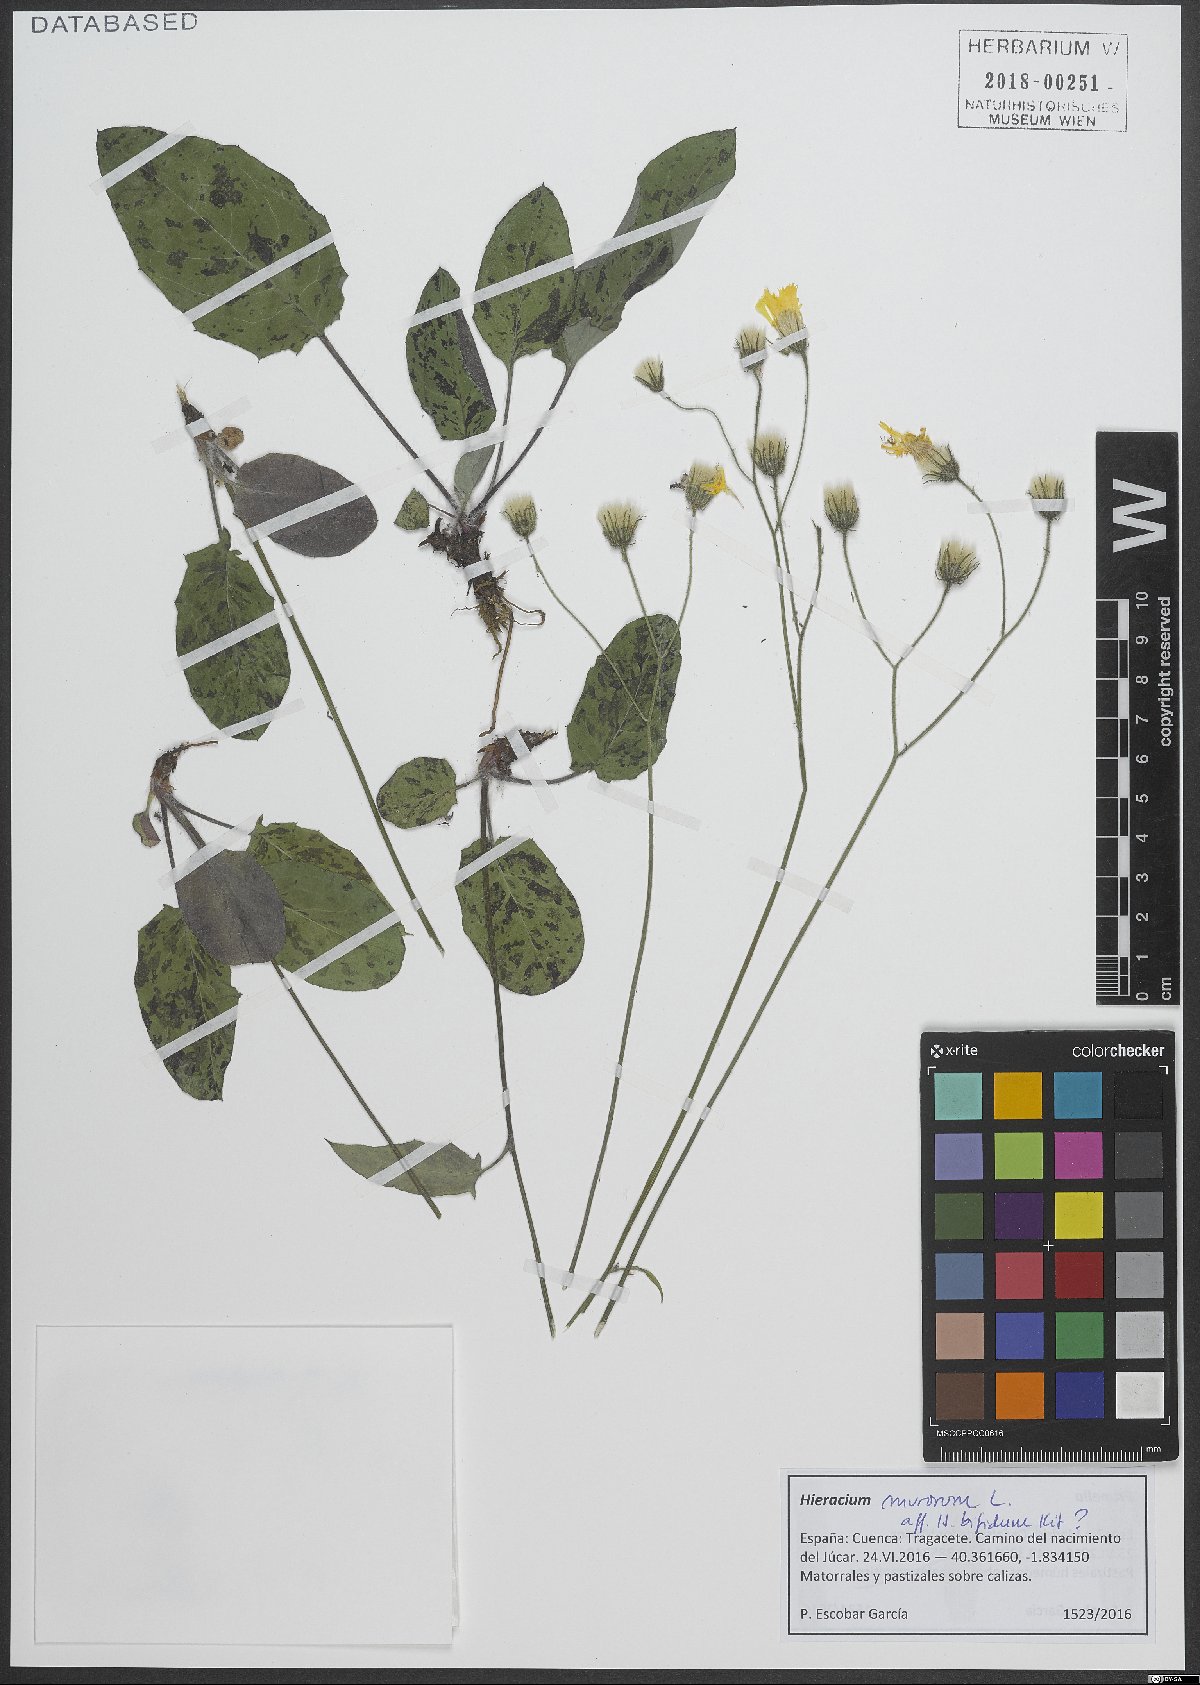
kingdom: Plantae
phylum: Tracheophyta
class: Magnoliopsida
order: Asterales
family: Asteraceae
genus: Hieracium
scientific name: Hieracium murorum
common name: Wall hawkweed
